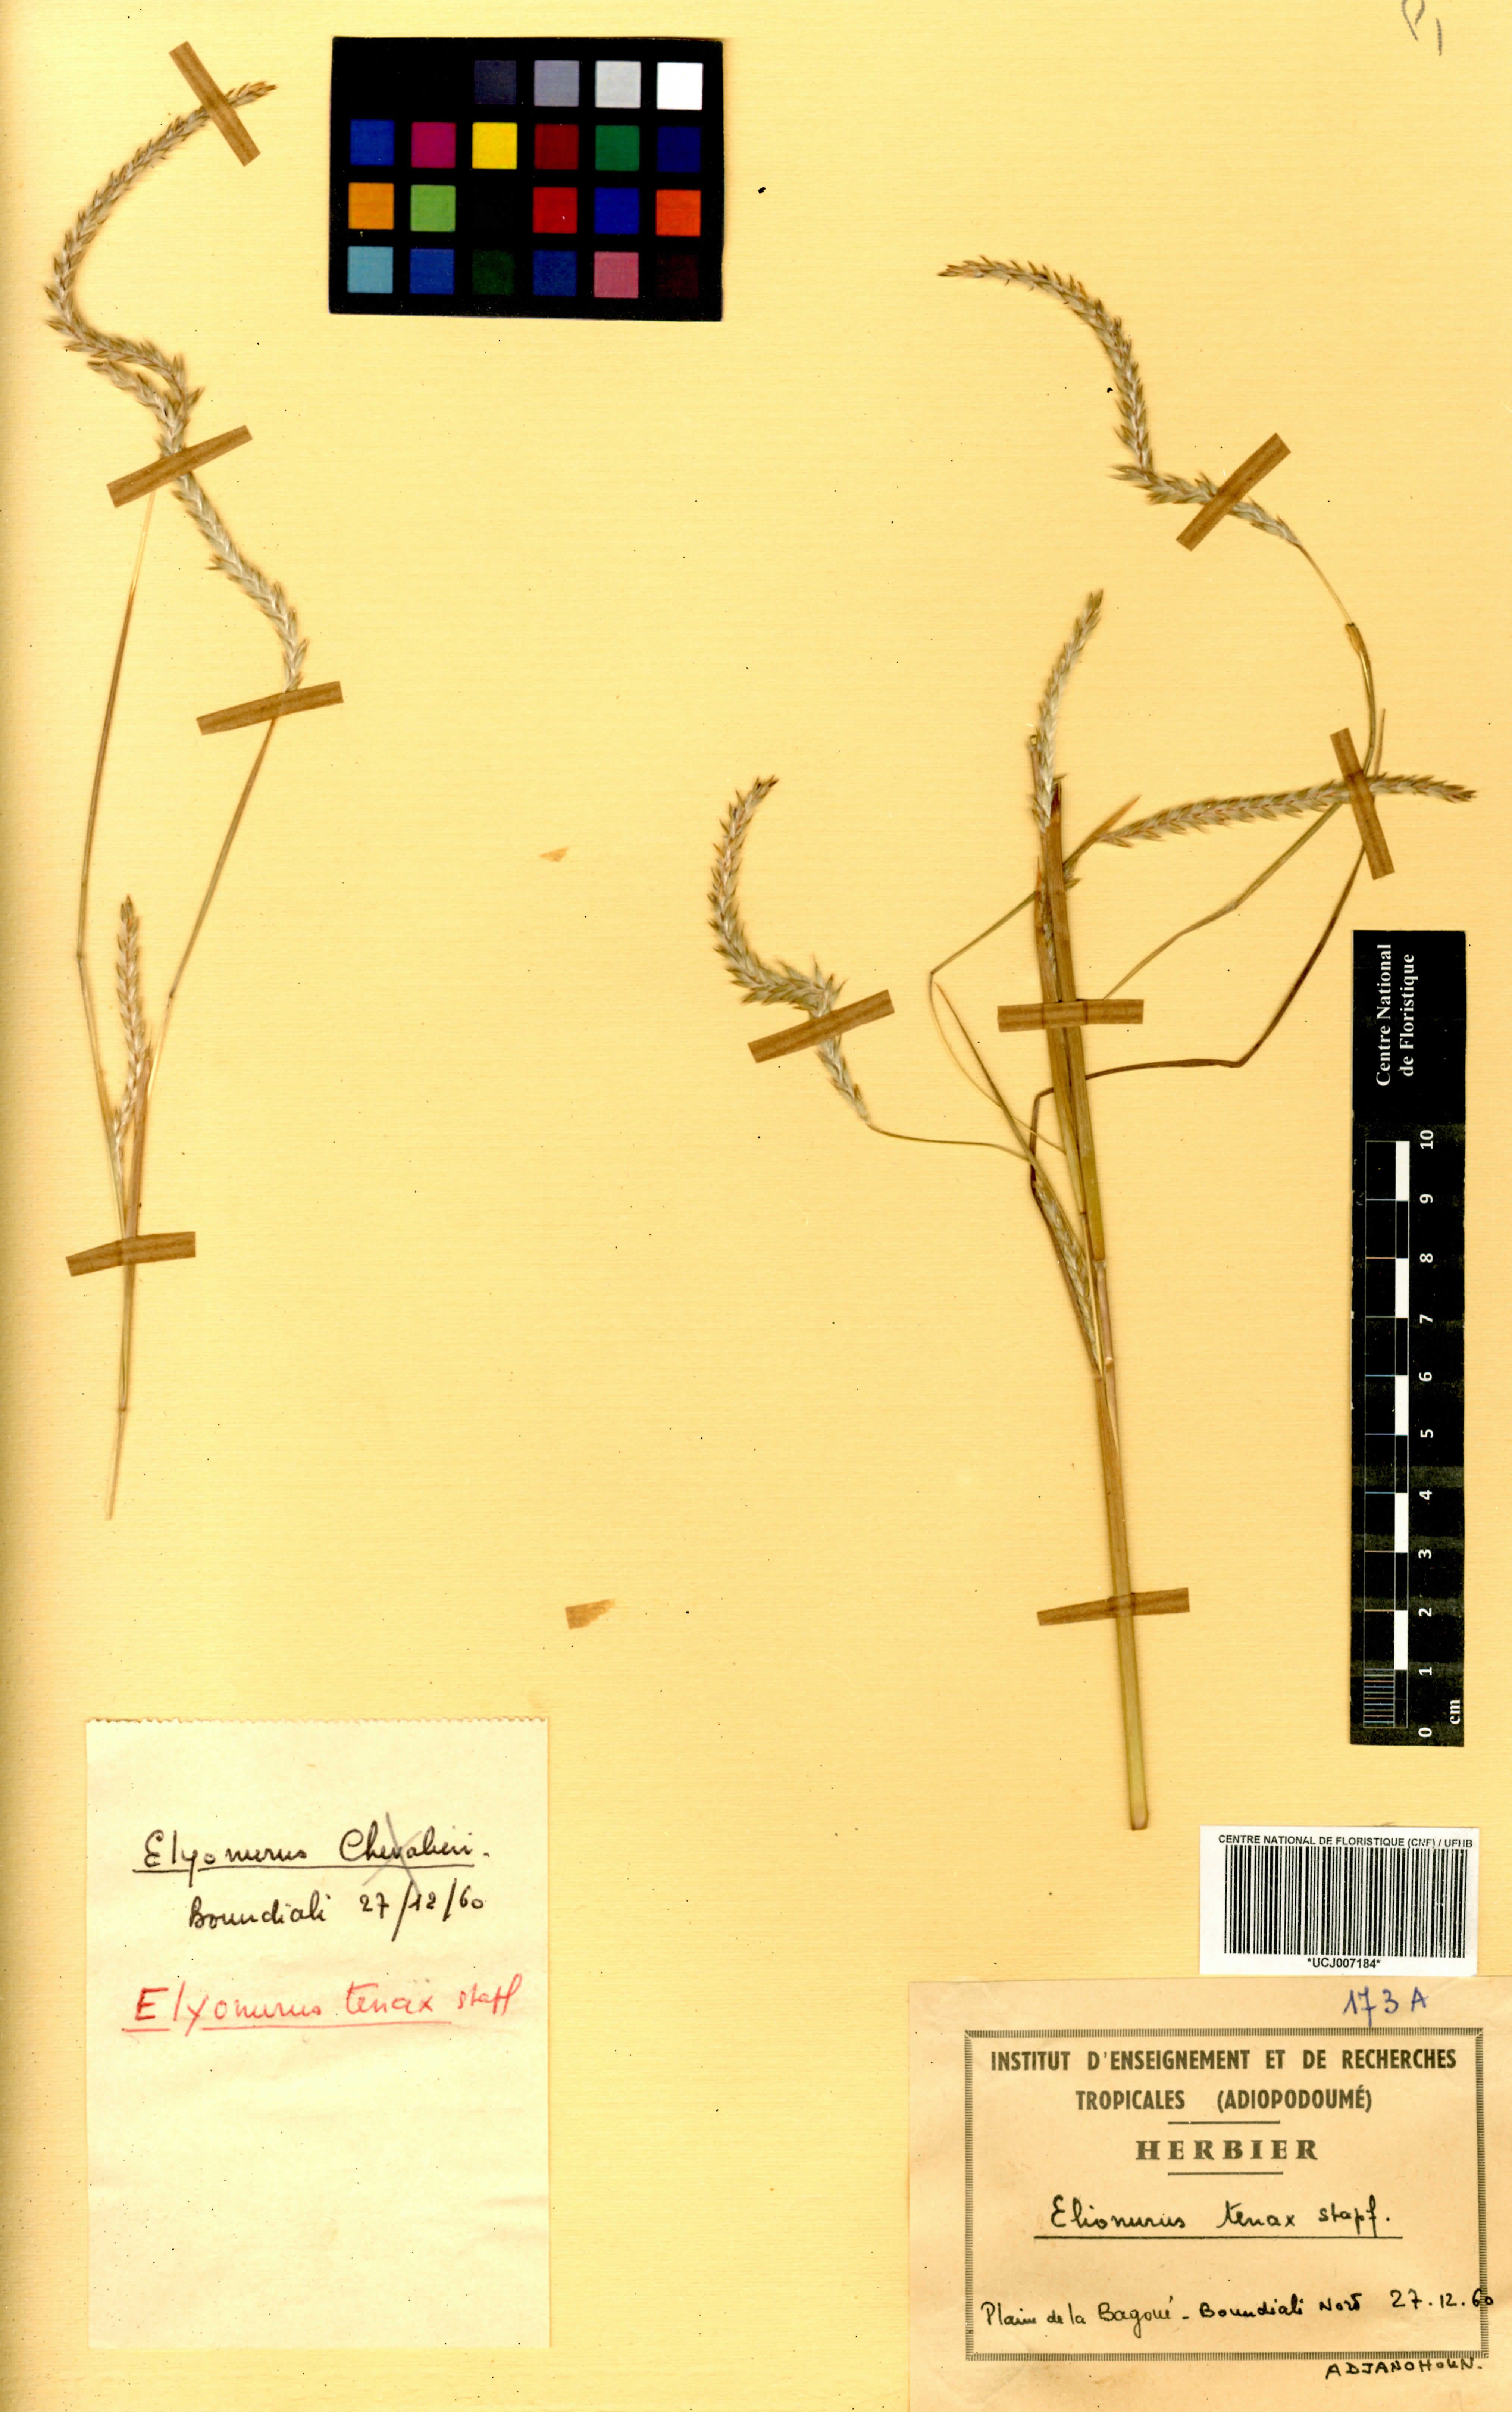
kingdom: Plantae
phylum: Tracheophyta
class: Liliopsida
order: Poales
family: Poaceae
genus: Elionurus
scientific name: Elionurus ciliaris
